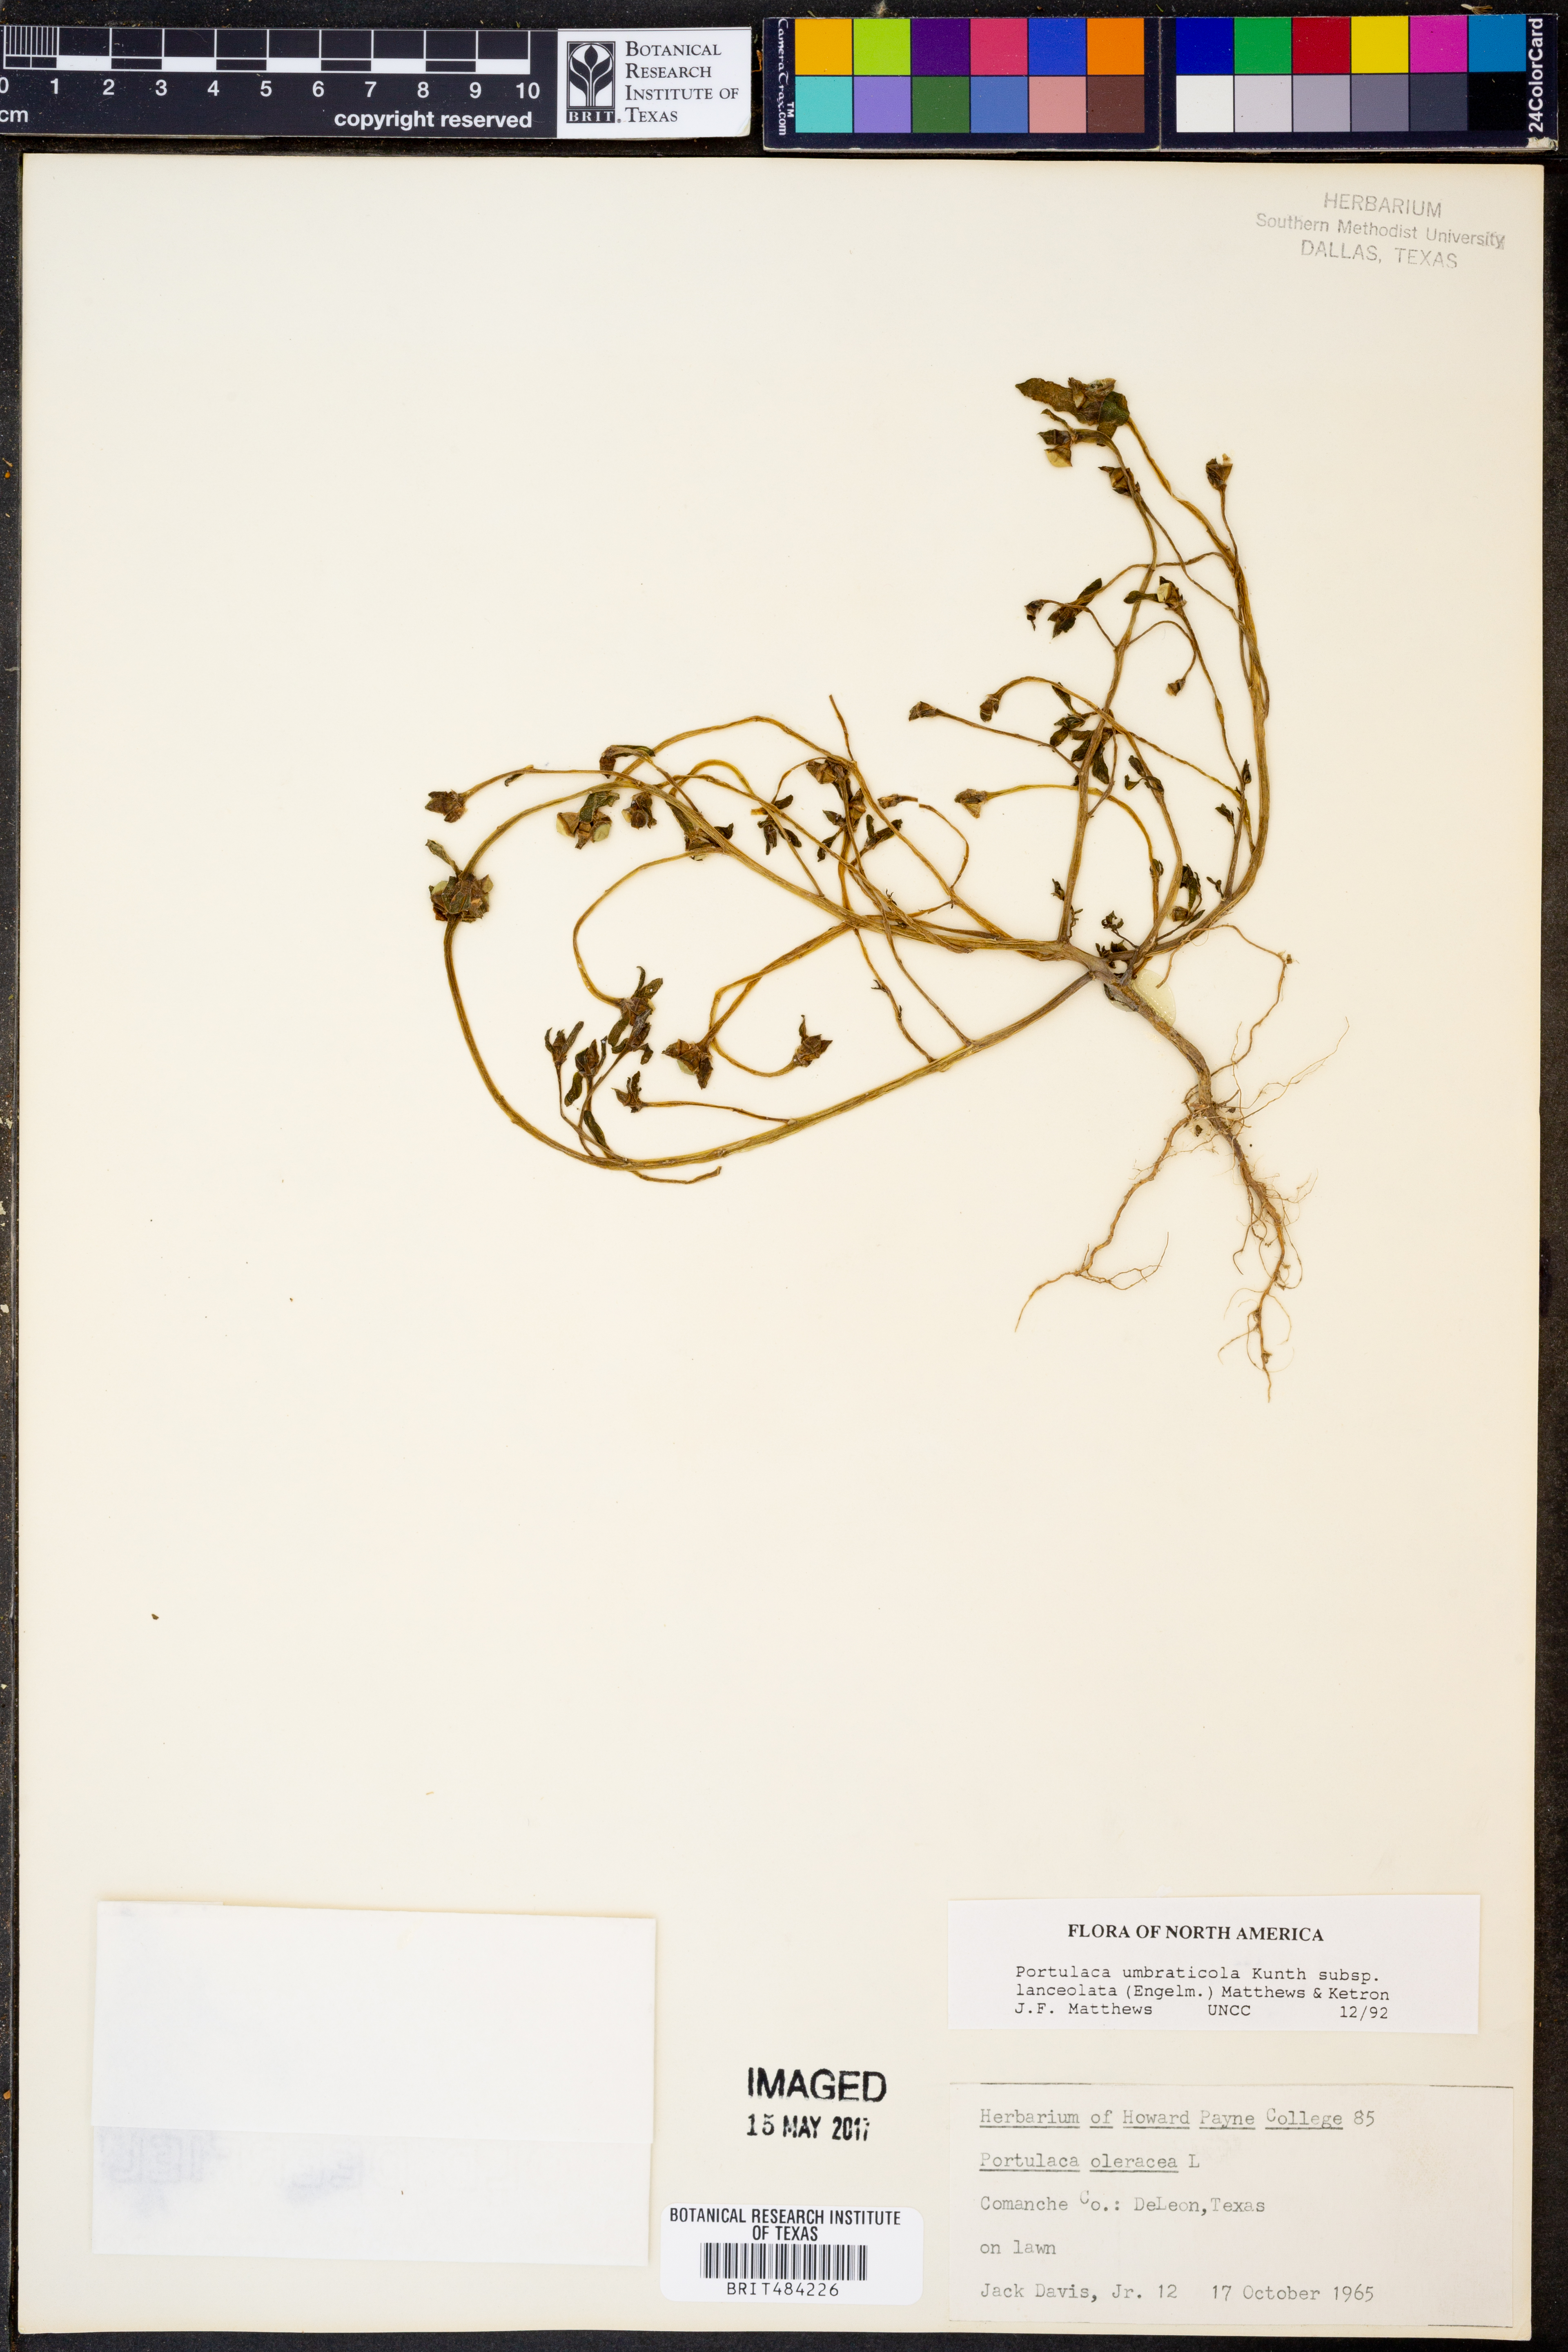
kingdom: Plantae
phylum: Tracheophyta
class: Magnoliopsida
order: Caryophyllales
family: Portulacaceae
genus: Portulaca
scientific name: Portulaca umbraticola
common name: Wingpod purslane
